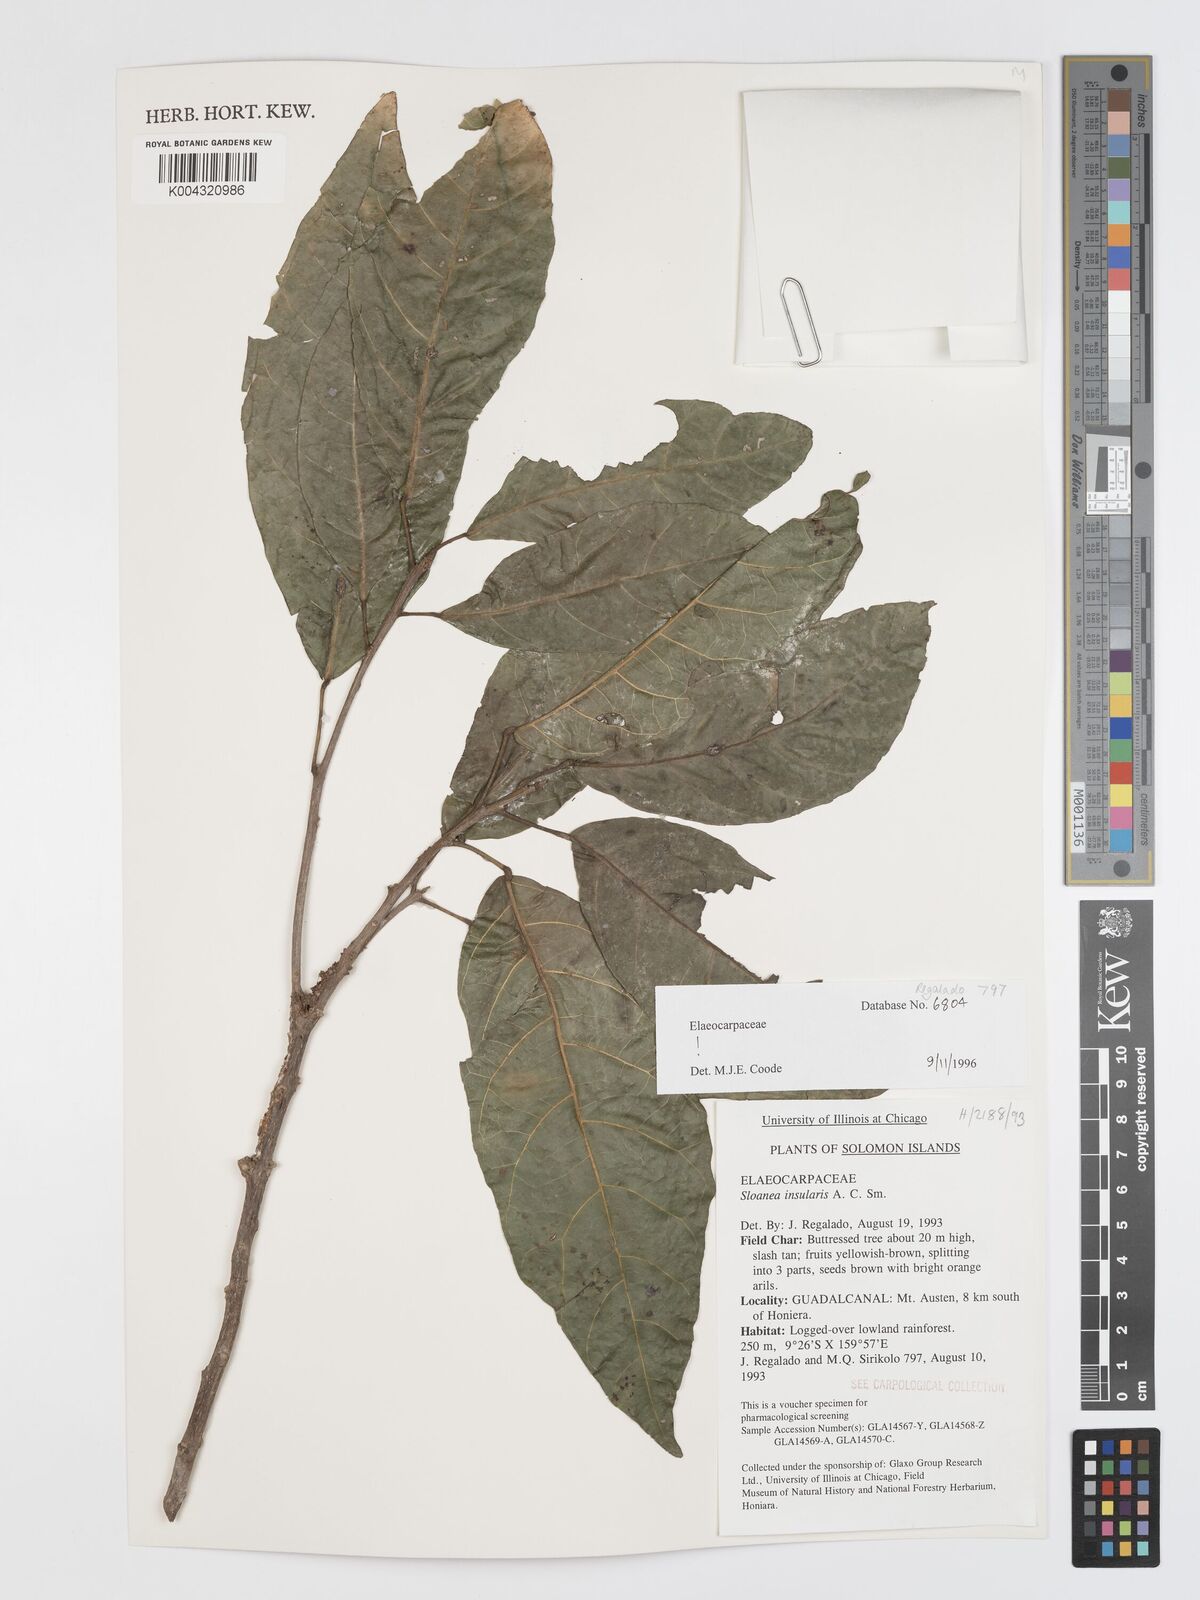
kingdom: Plantae
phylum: Tracheophyta
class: Magnoliopsida
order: Oxalidales
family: Elaeocarpaceae
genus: Sloanea
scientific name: Sloanea insularis
